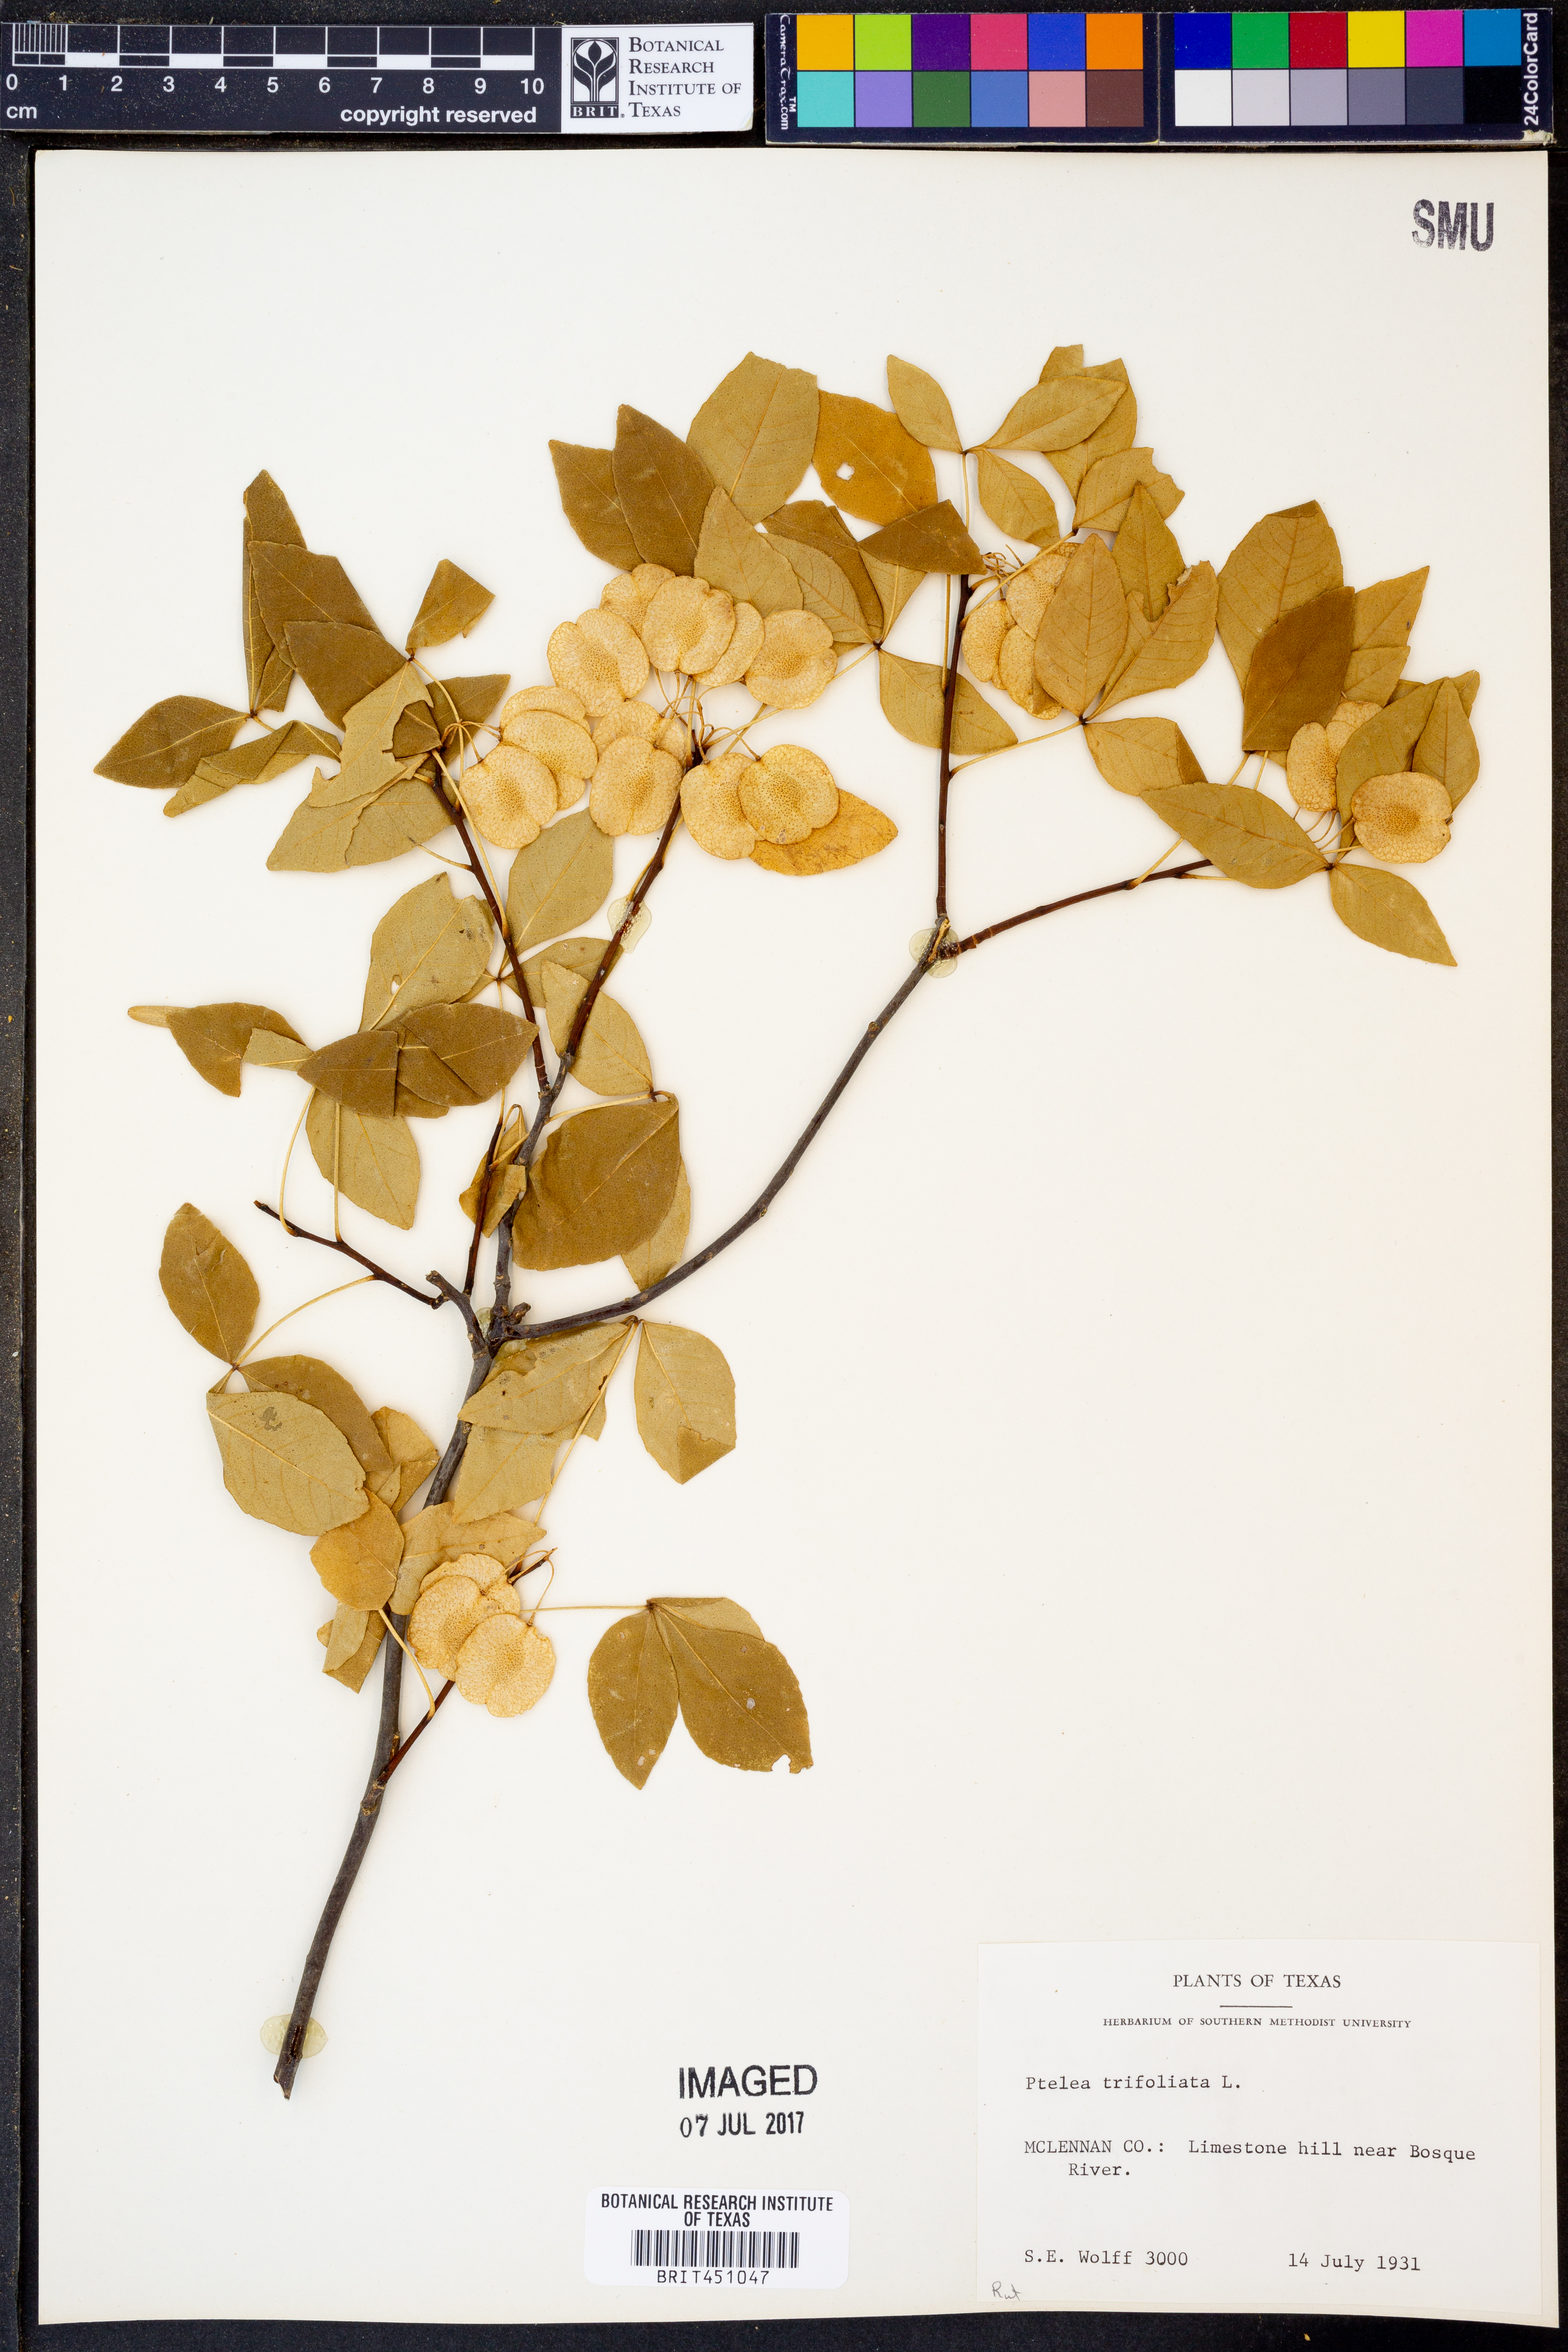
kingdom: Plantae
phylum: Tracheophyta
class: Magnoliopsida
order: Sapindales
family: Rutaceae
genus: Ptelea
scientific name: Ptelea trifoliata
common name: Common hop-tree
